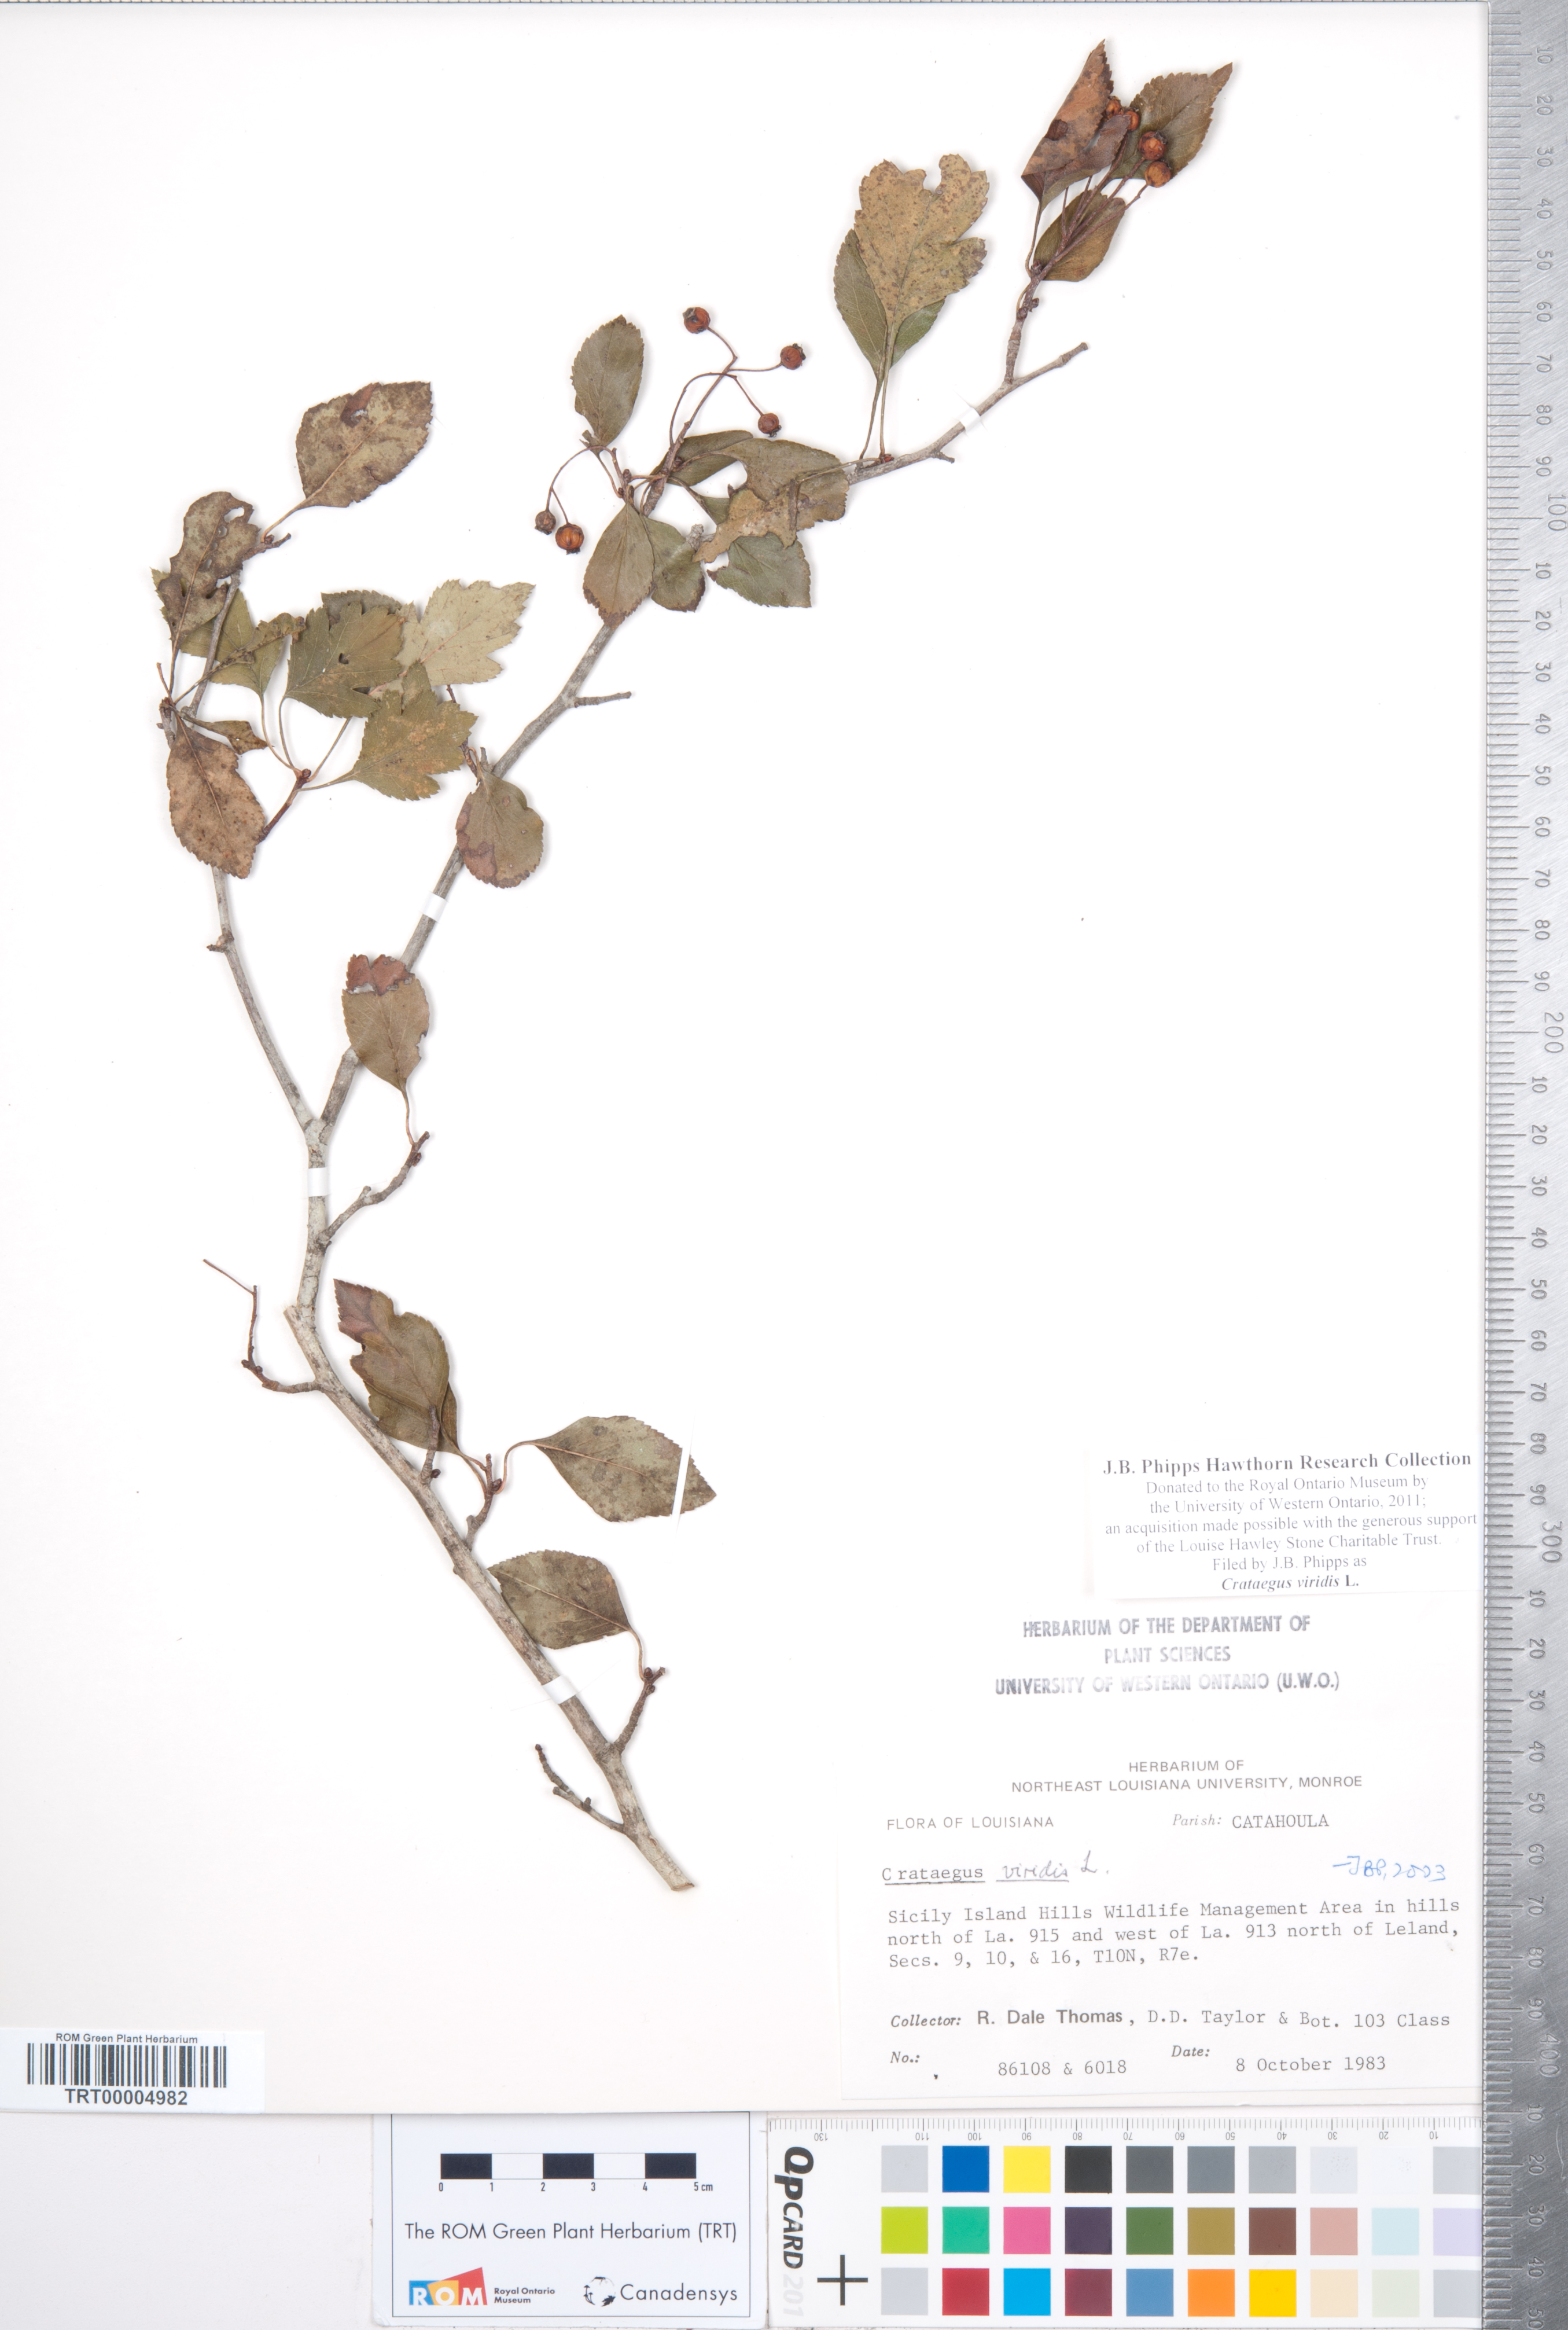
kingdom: Plantae
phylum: Tracheophyta
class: Magnoliopsida
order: Rosales
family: Rosaceae
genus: Crataegus
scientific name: Crataegus viridis
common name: Southernthorn
